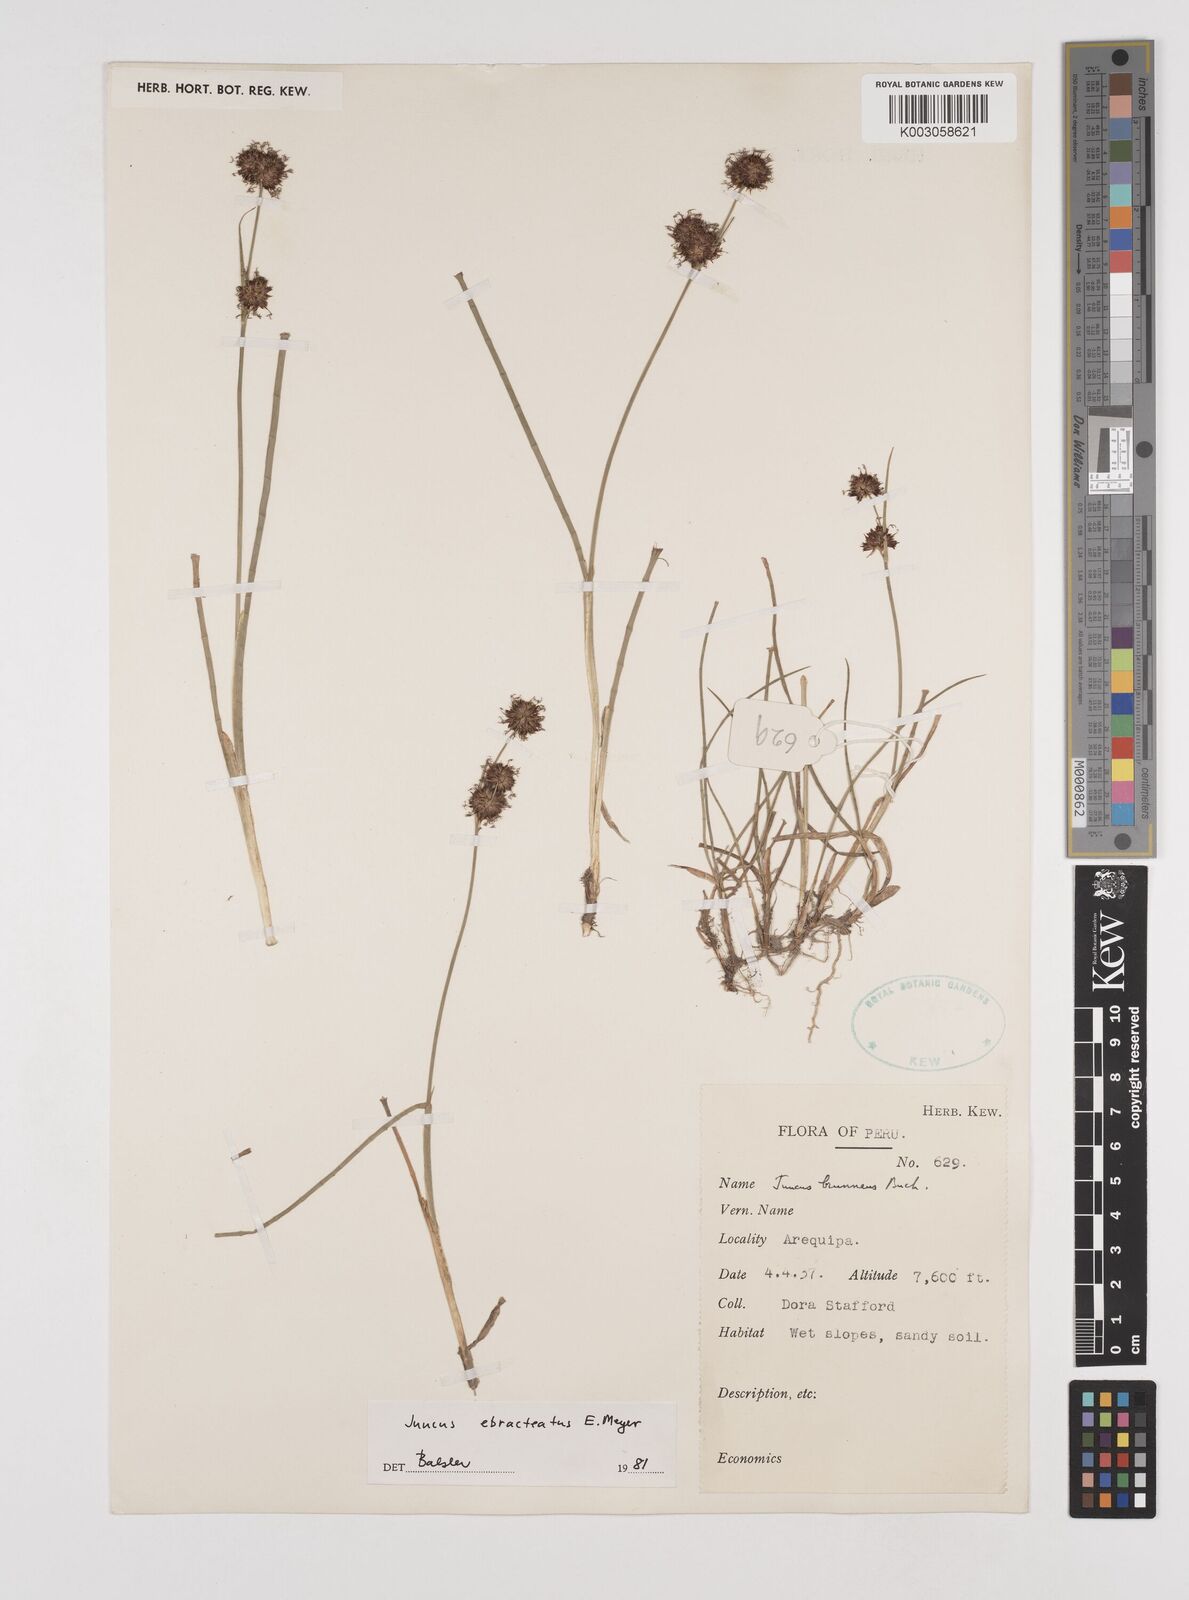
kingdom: Plantae
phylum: Tracheophyta
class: Liliopsida
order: Poales
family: Juncaceae
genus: Juncus
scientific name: Juncus ebracteatus
